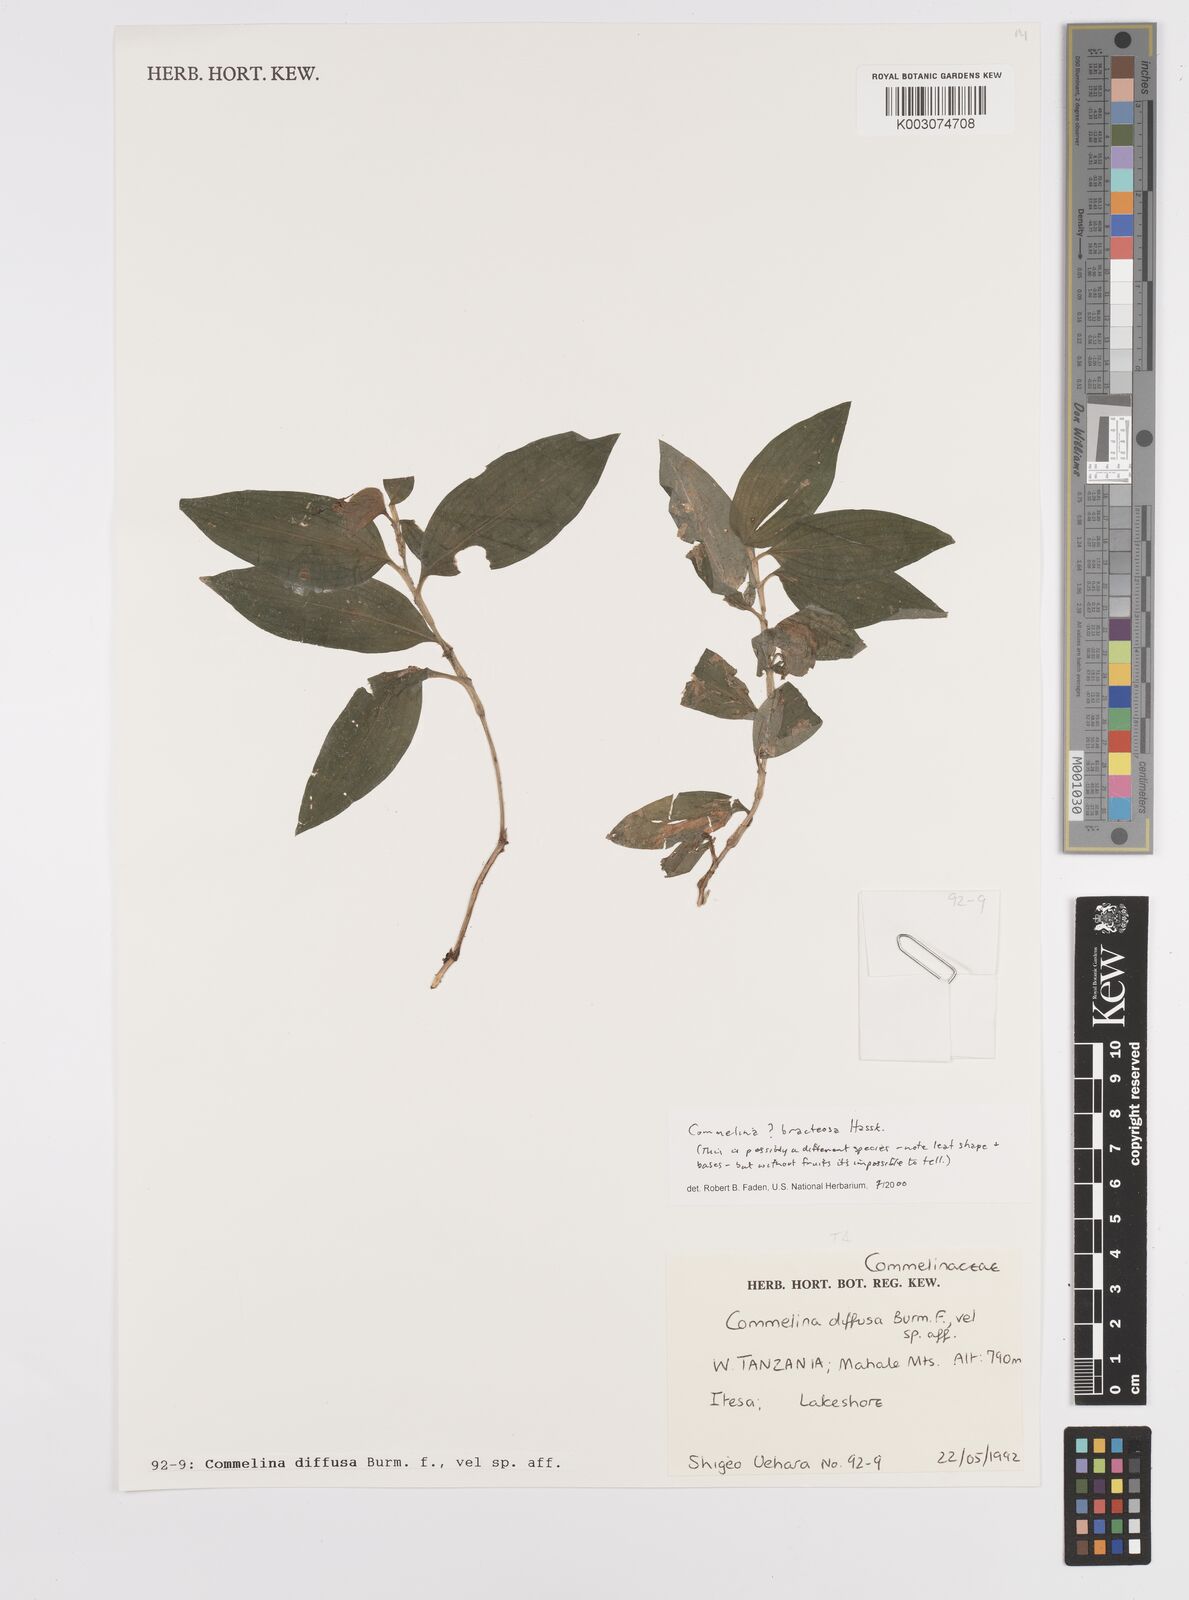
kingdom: Plantae
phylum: Tracheophyta
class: Liliopsida
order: Commelinales
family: Commelinaceae
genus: Commelina
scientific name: Commelina bracteosa
